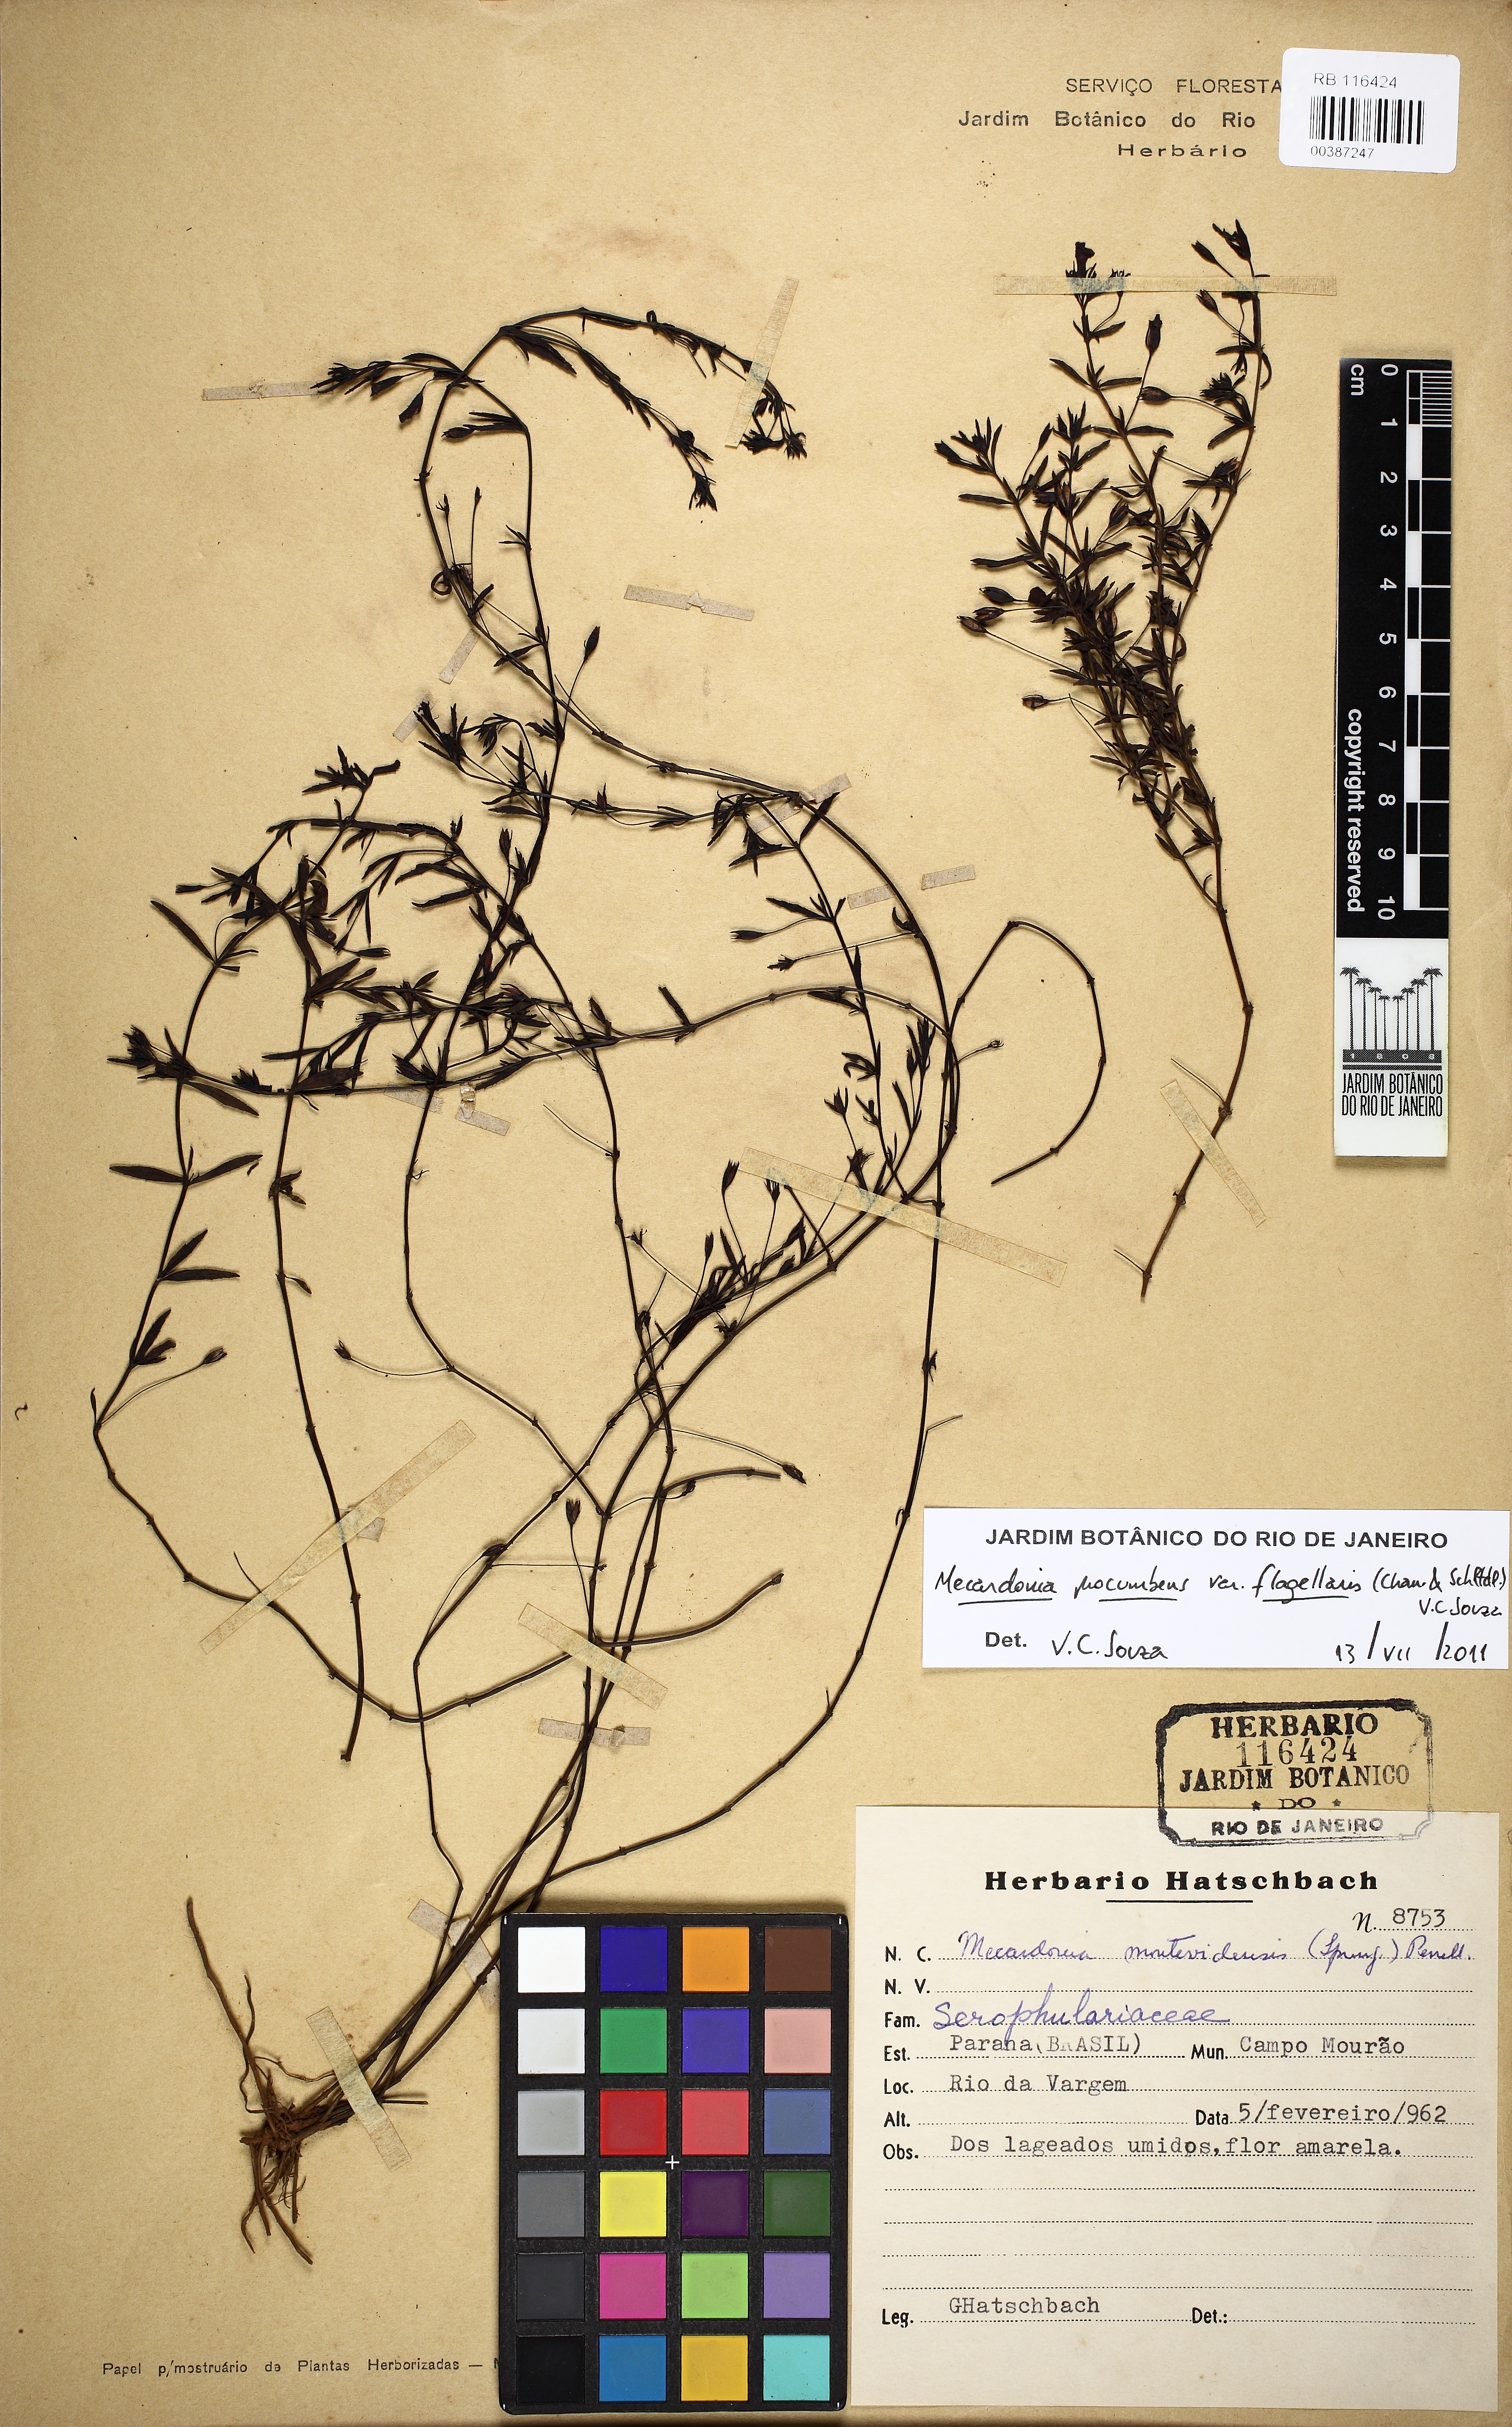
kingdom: Plantae
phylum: Tracheophyta
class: Magnoliopsida
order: Lamiales
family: Plantaginaceae
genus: Mecardonia
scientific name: Mecardonia flagellaris
